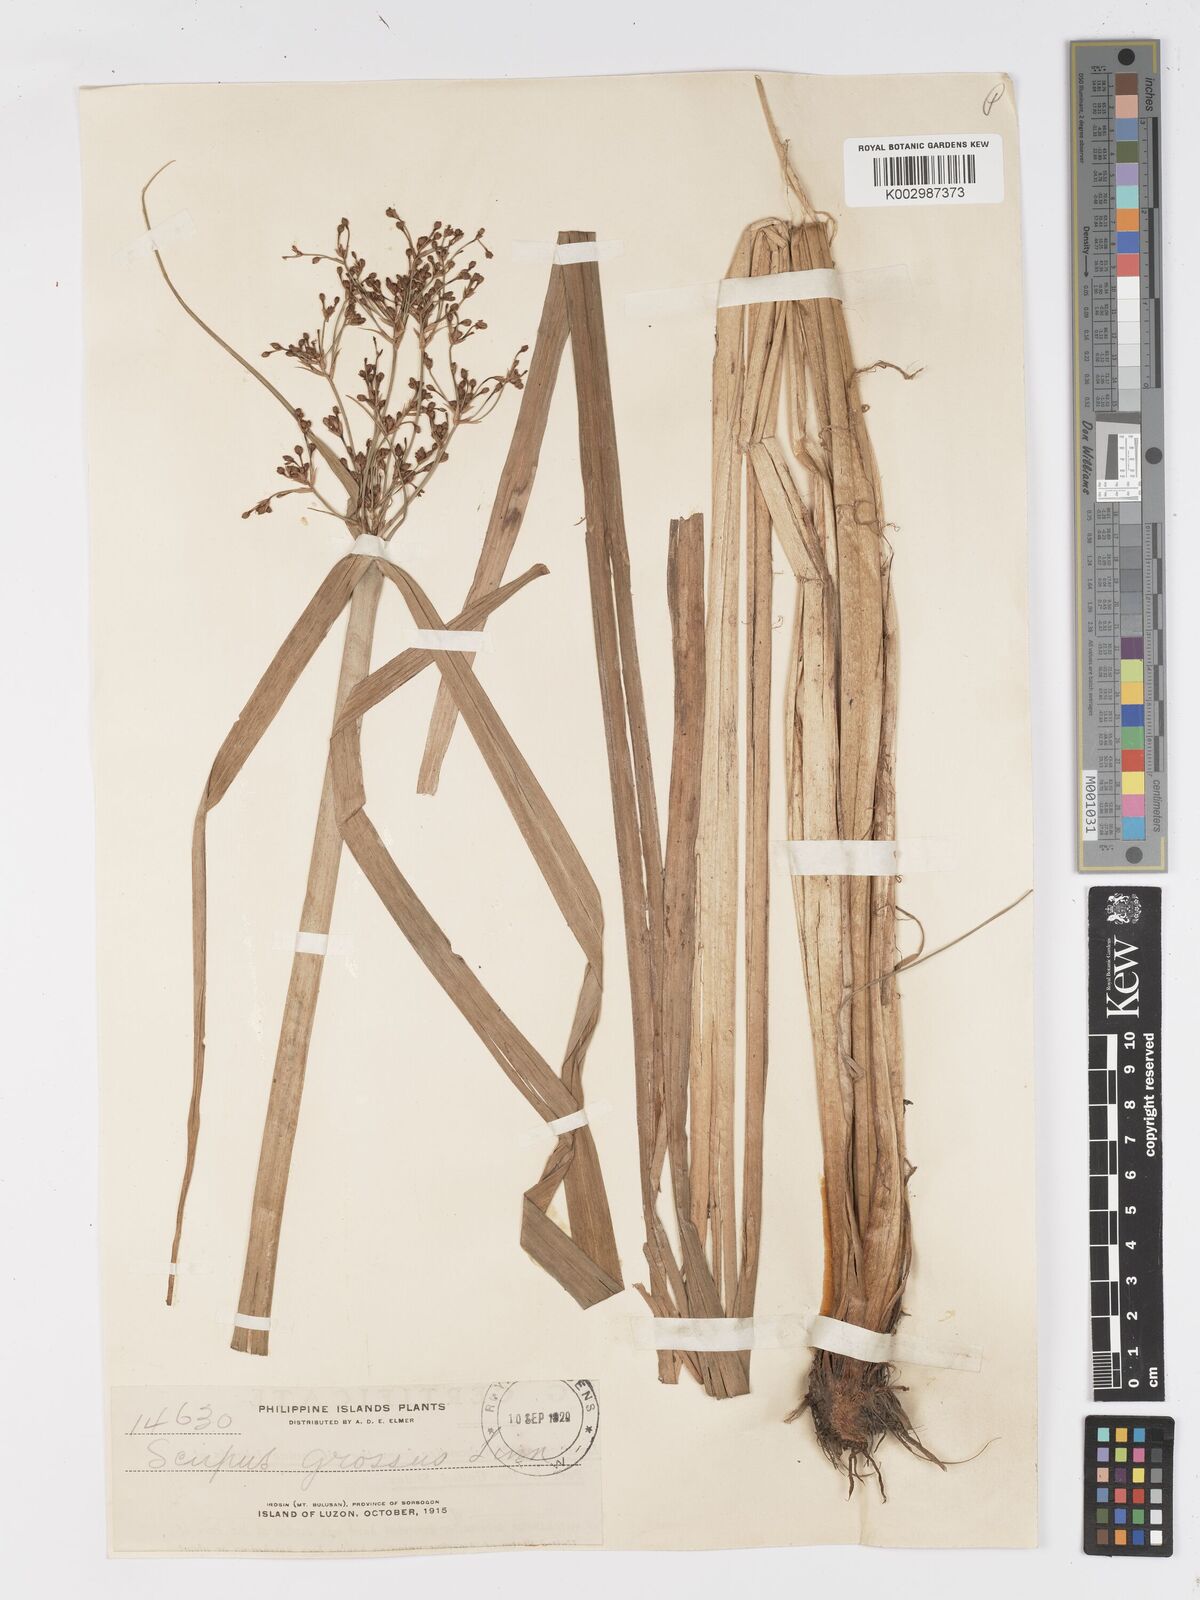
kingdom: Plantae
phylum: Tracheophyta
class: Liliopsida
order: Poales
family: Cyperaceae
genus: Actinoscirpus
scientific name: Actinoscirpus grossus
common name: Giant bur rush
